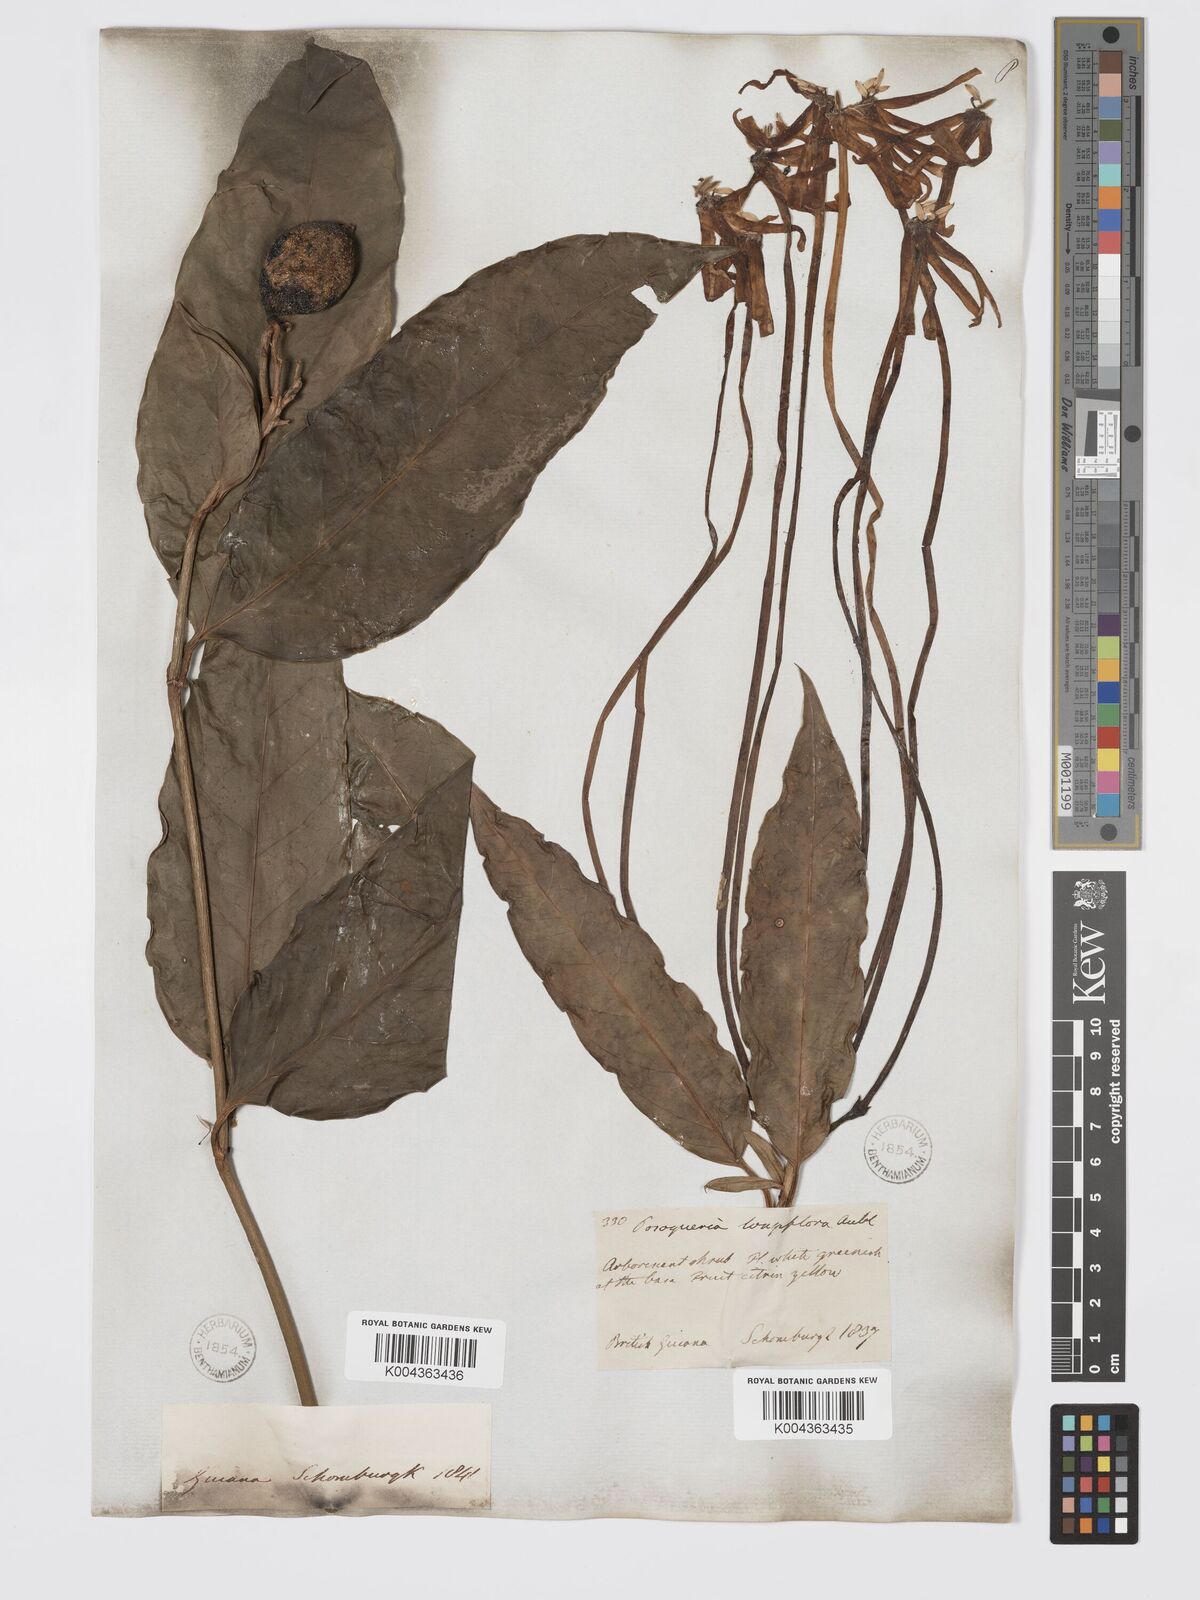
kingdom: Plantae
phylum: Tracheophyta
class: Magnoliopsida
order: Gentianales
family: Rubiaceae
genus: Posoqueria
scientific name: Posoqueria
